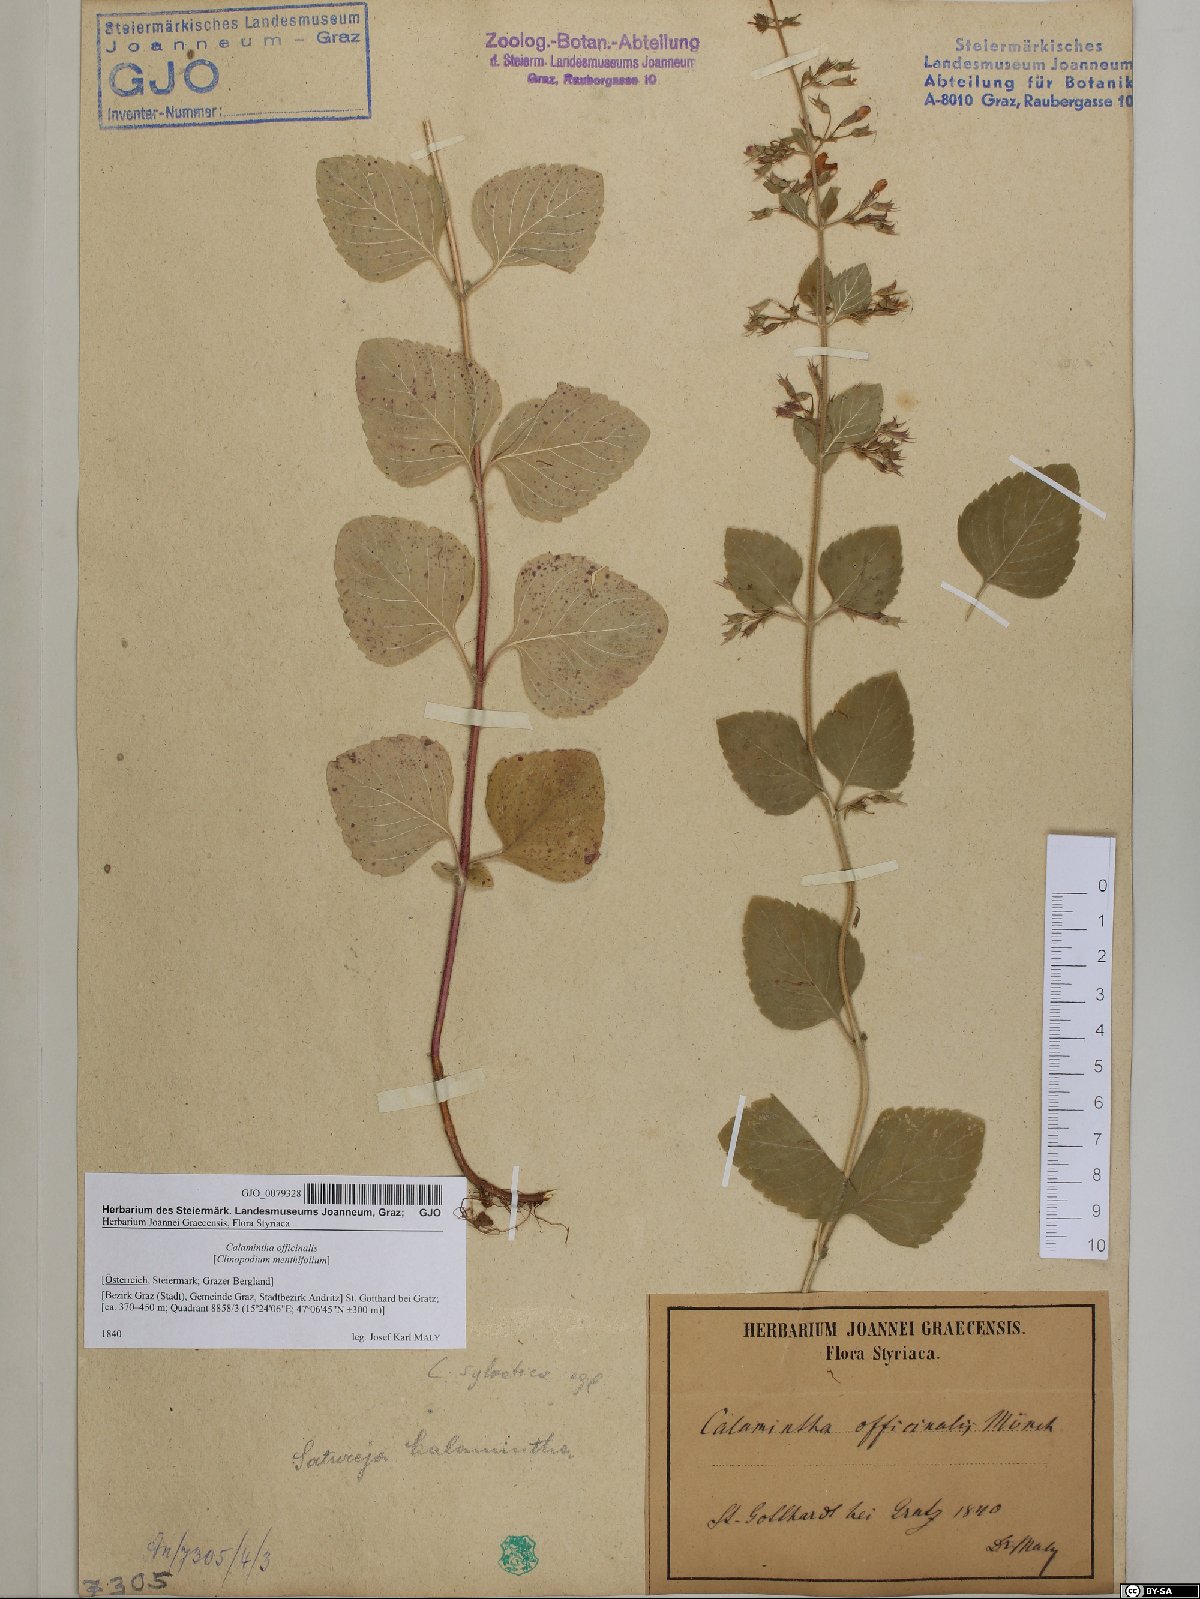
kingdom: Plantae
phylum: Tracheophyta
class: Magnoliopsida
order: Lamiales
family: Lamiaceae
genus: Clinopodium
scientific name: Clinopodium nepeta
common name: Lesser calamint
